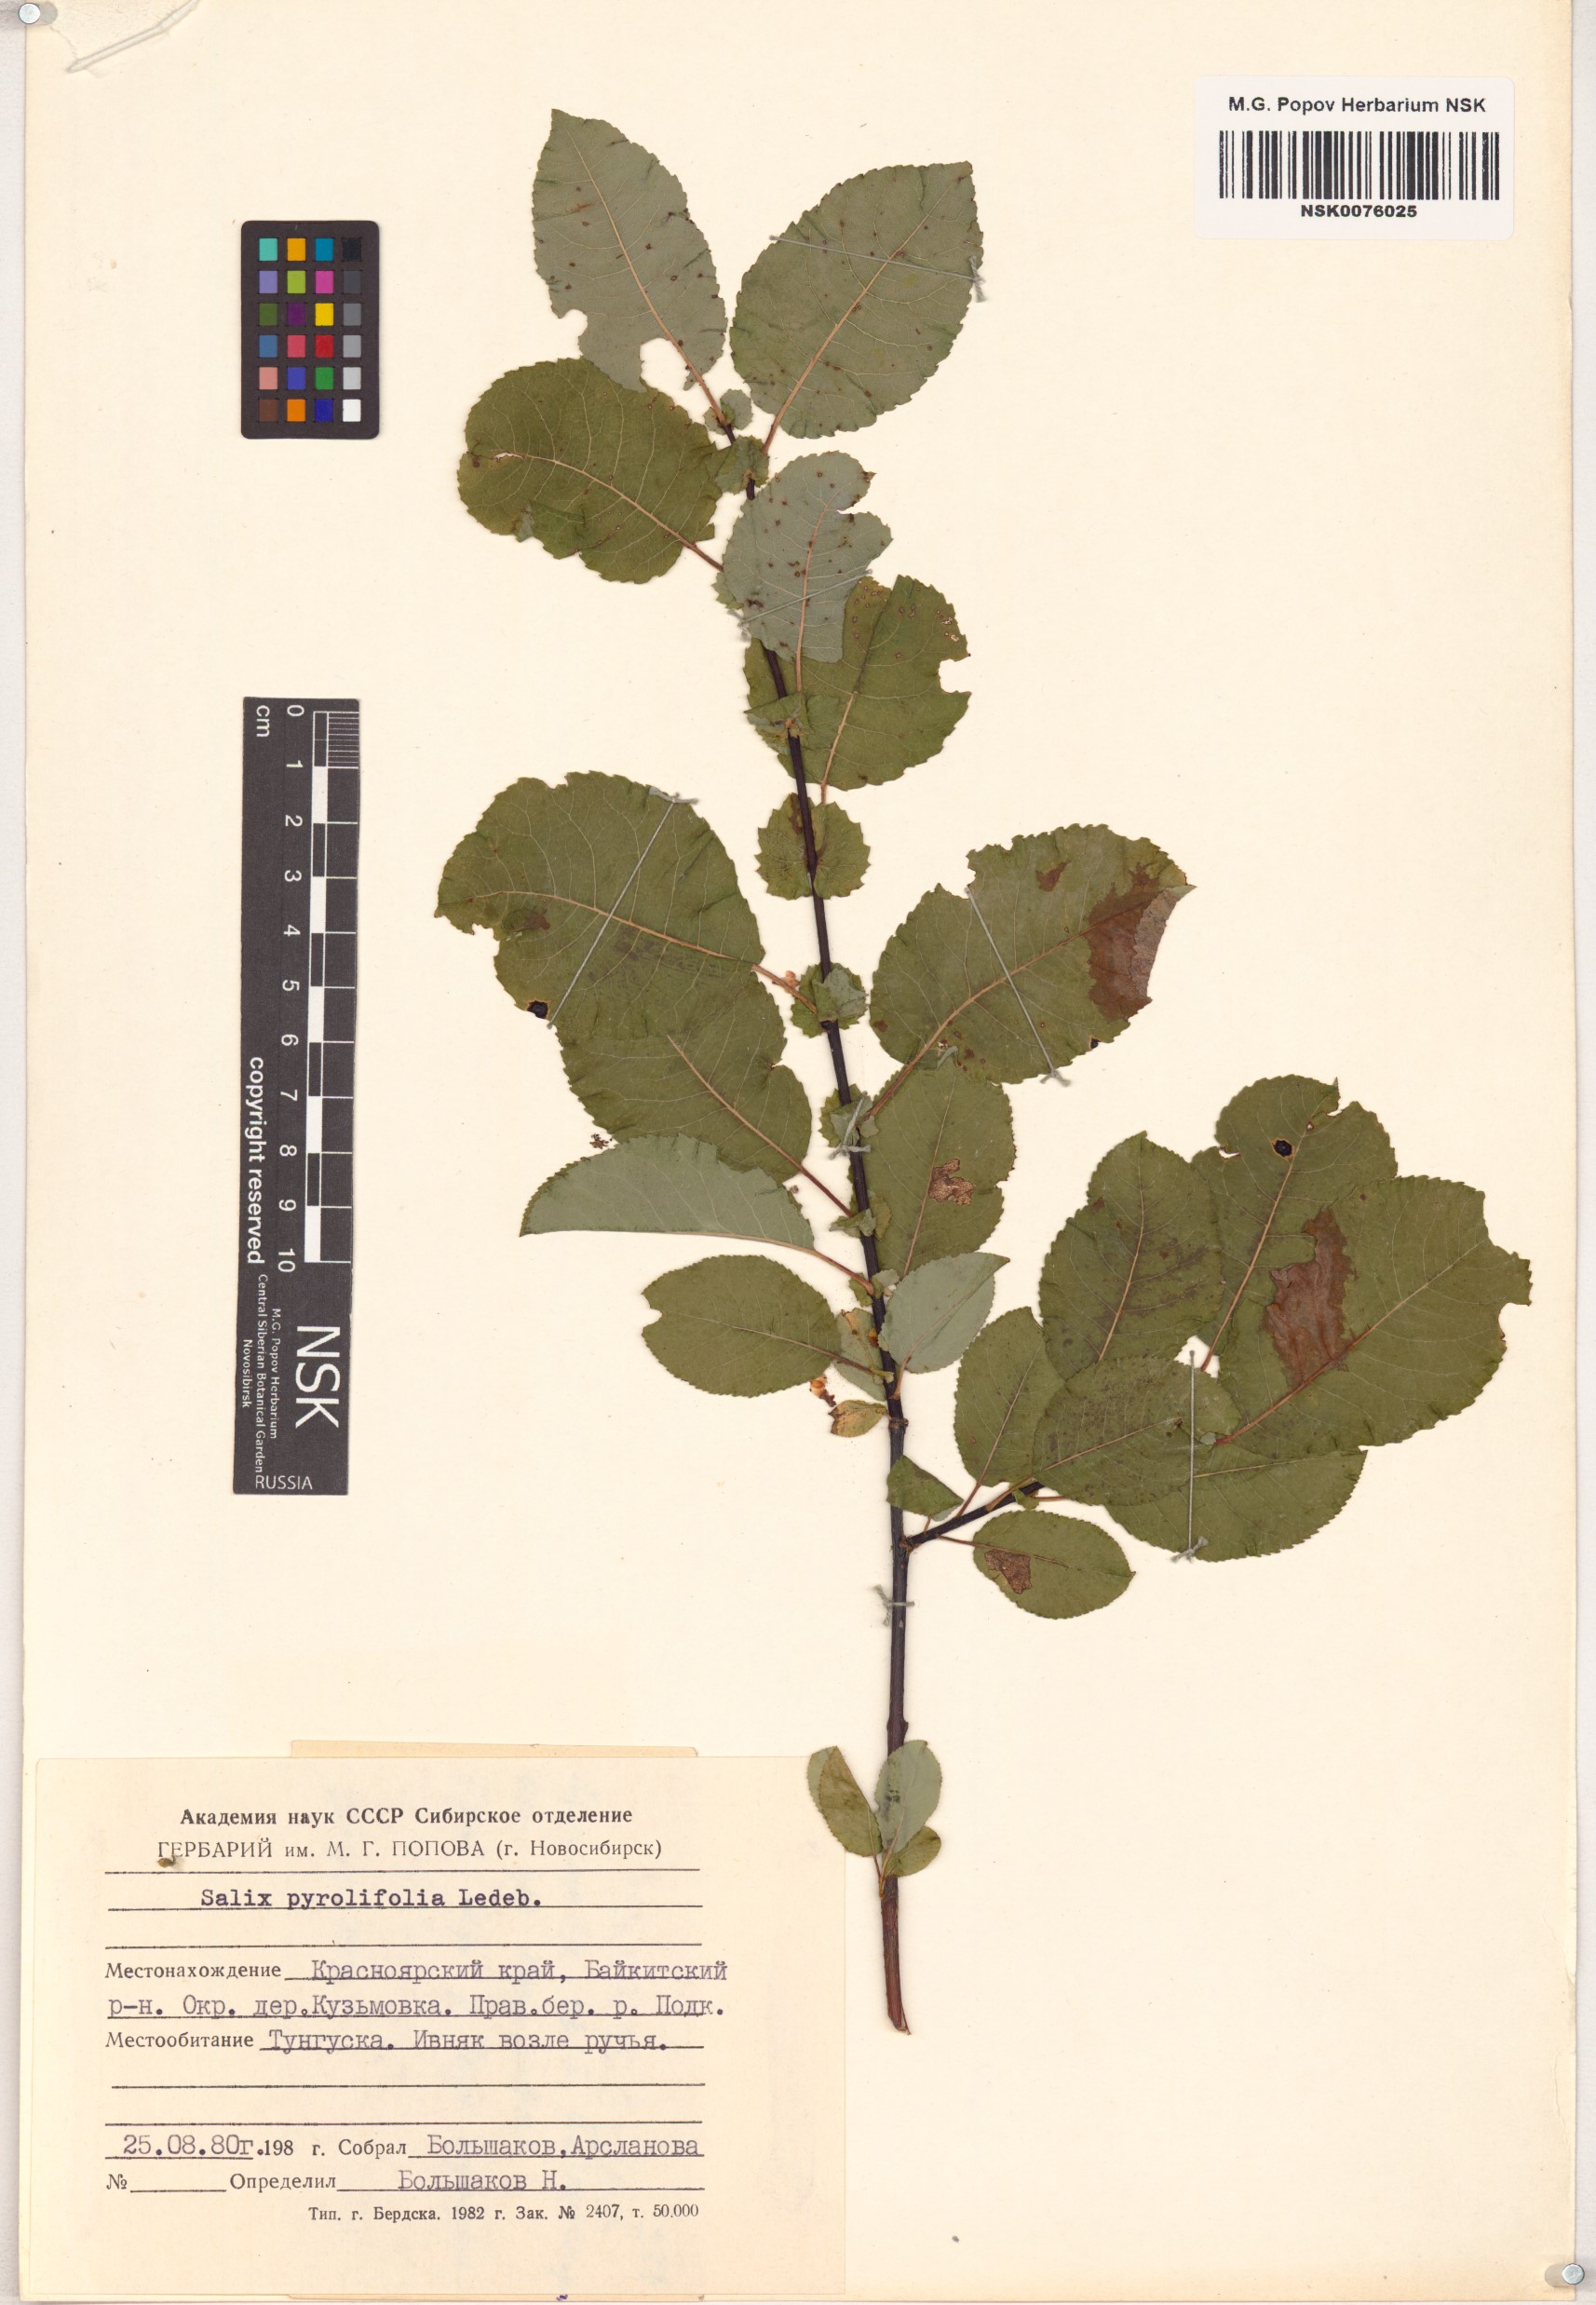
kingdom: Plantae
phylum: Tracheophyta
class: Magnoliopsida
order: Malpighiales
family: Salicaceae
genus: Salix
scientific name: Salix pyrolifolia
